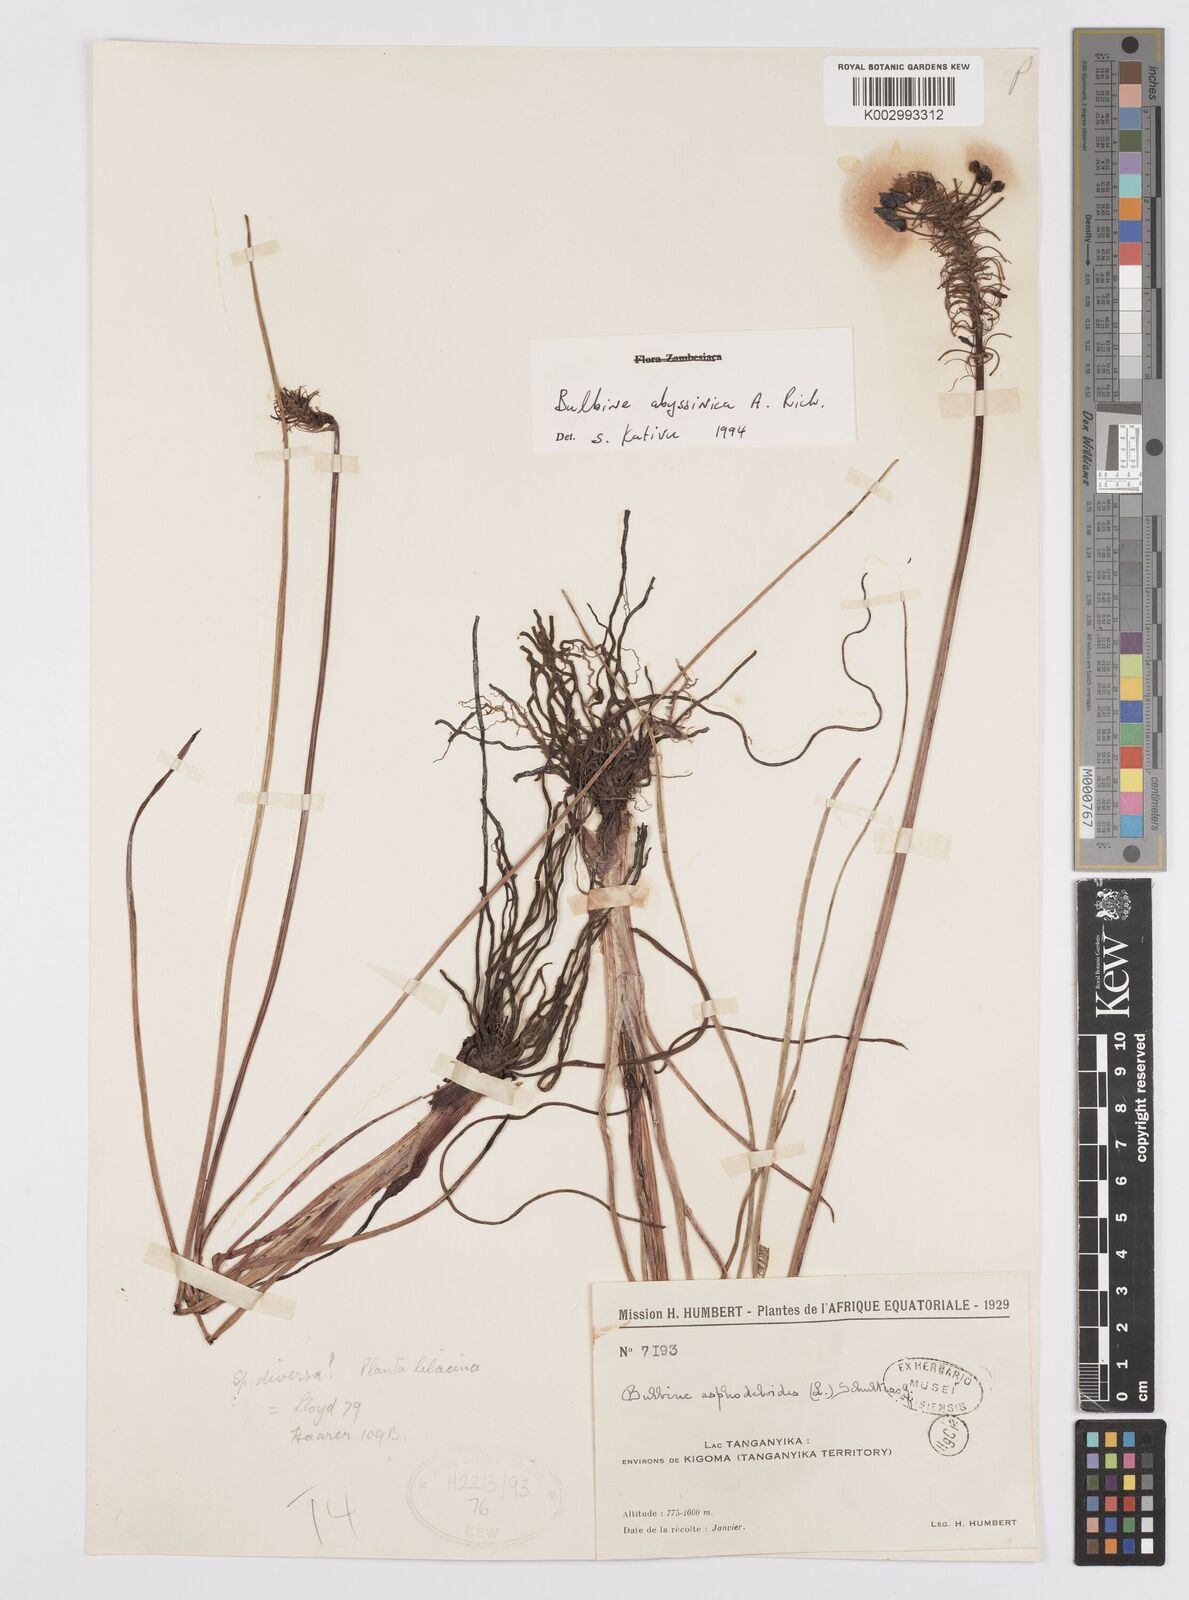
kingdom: Plantae
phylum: Tracheophyta
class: Liliopsida
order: Asparagales
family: Asphodelaceae
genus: Bulbine
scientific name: Bulbine abyssinica
